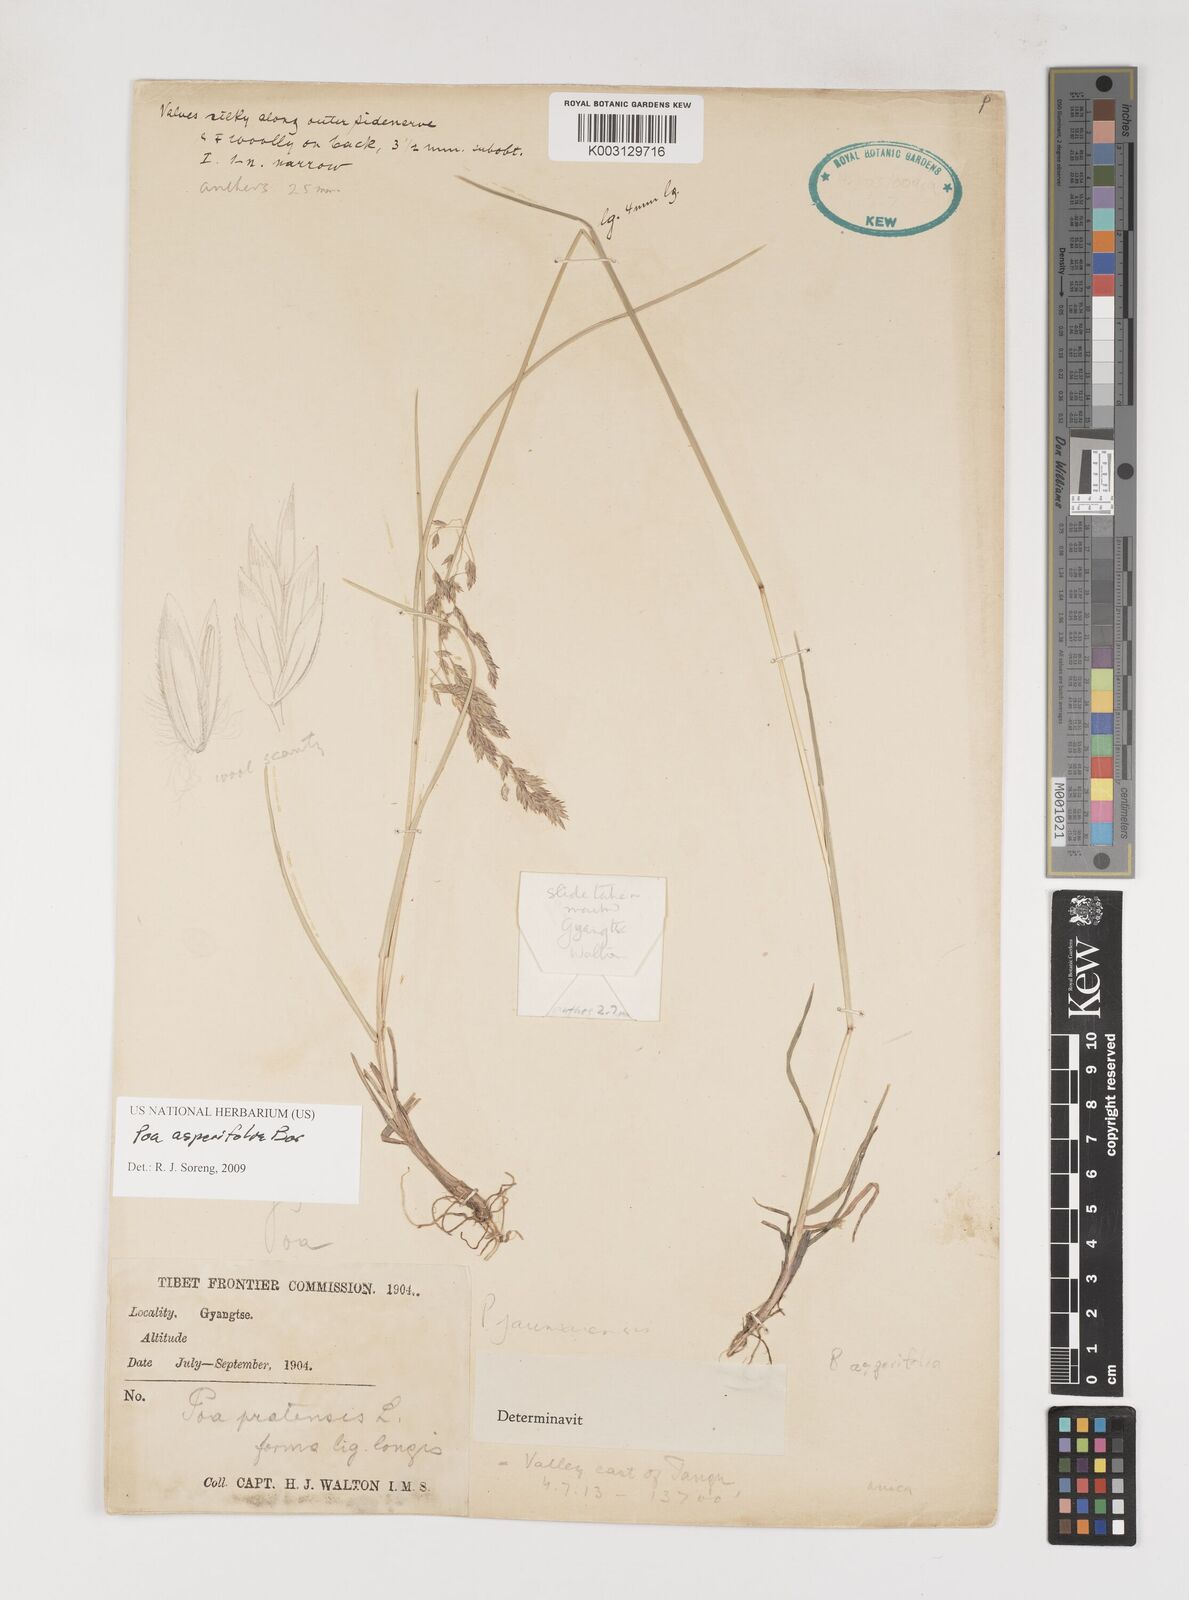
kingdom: Plantae
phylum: Tracheophyta
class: Liliopsida
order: Poales
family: Poaceae
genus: Poa
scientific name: Poa asperifolia
